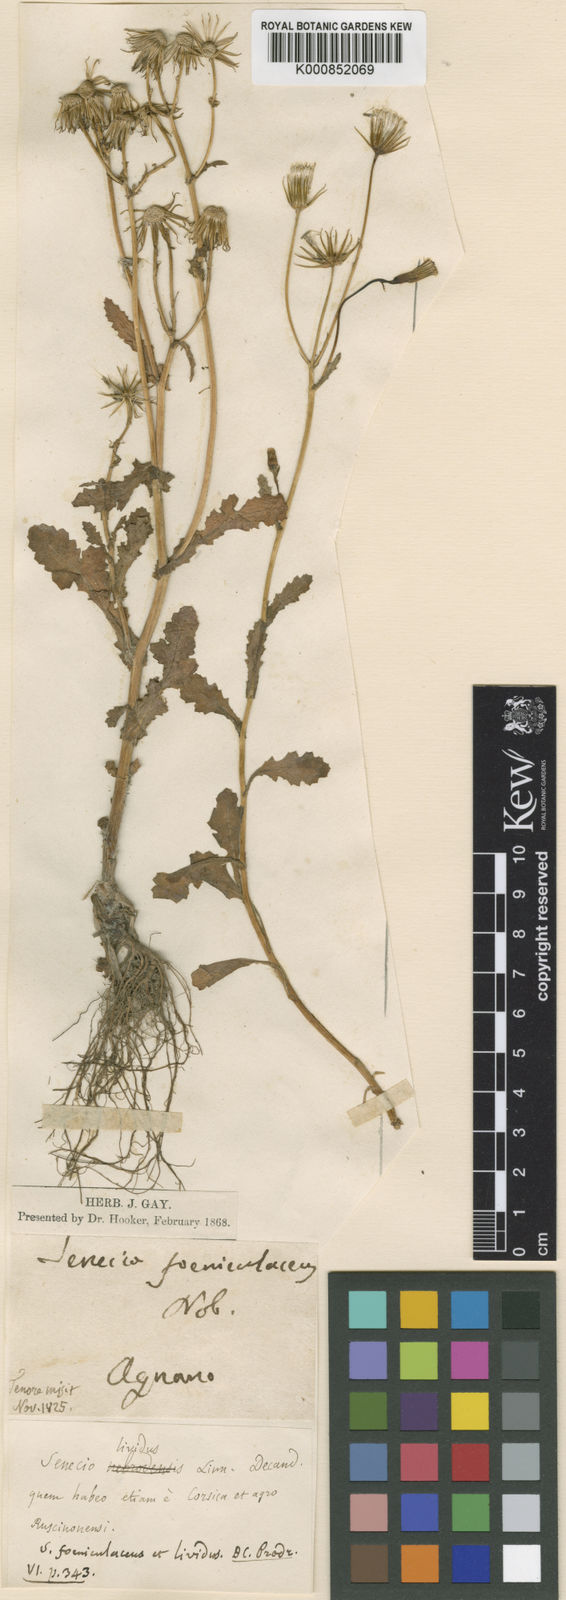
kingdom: Plantae
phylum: Tracheophyta
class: Magnoliopsida
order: Asterales
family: Asteraceae
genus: Senecio
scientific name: Senecio lividus
